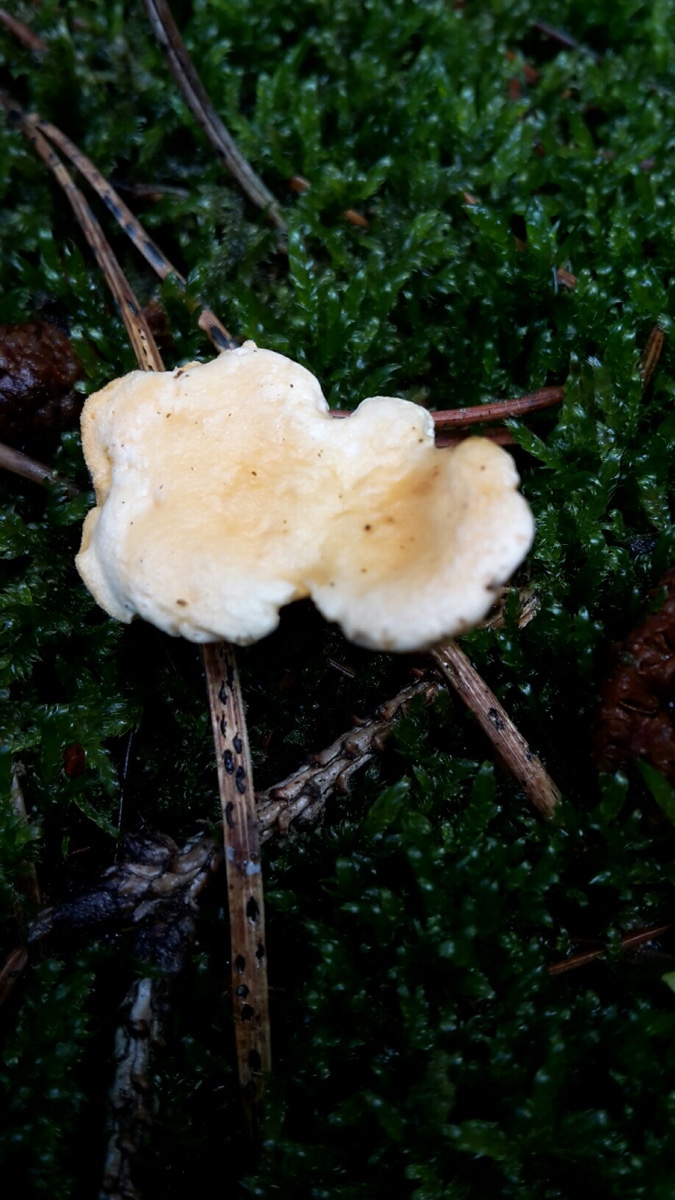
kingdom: Fungi
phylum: Basidiomycota
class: Agaricomycetes
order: Boletales
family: Hygrophoropsidaceae
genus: Hygrophoropsis
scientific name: Hygrophoropsis aurantiaca
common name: almindelig orangekantarel
